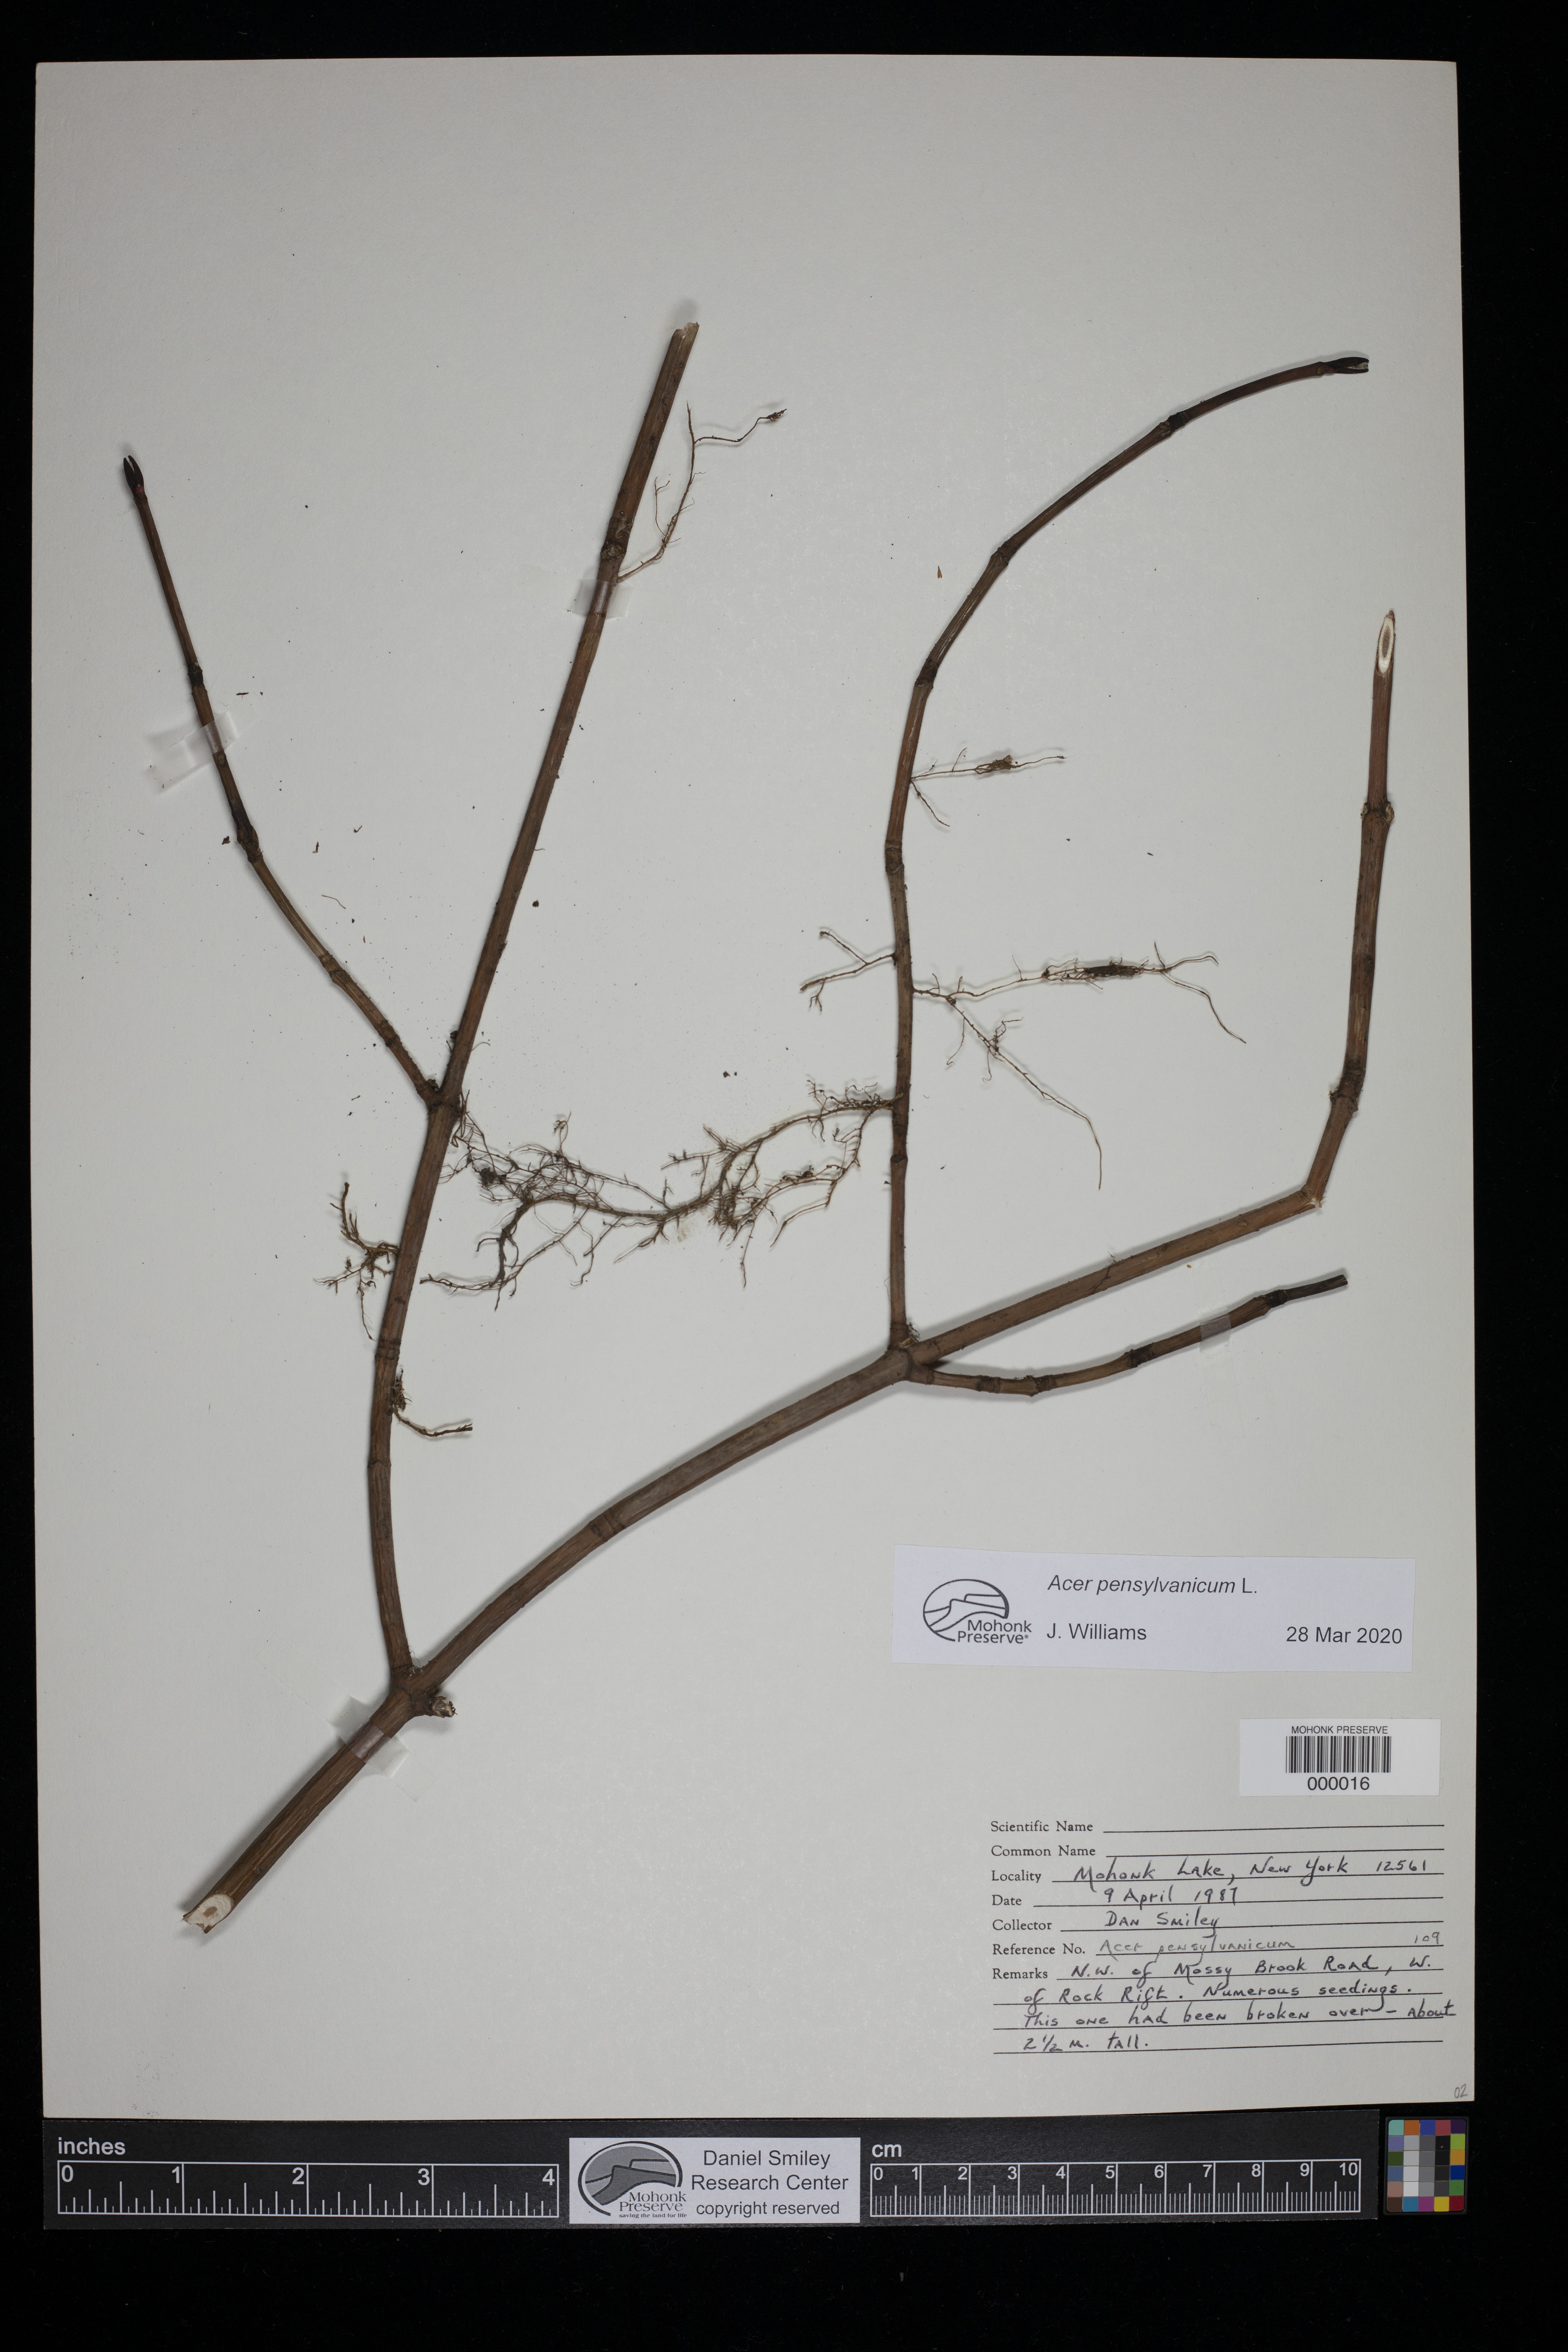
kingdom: Plantae
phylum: Tracheophyta
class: Magnoliopsida
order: Sapindales
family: Sapindaceae
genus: Acer
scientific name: Acer pensylvanicum
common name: Moosewood
